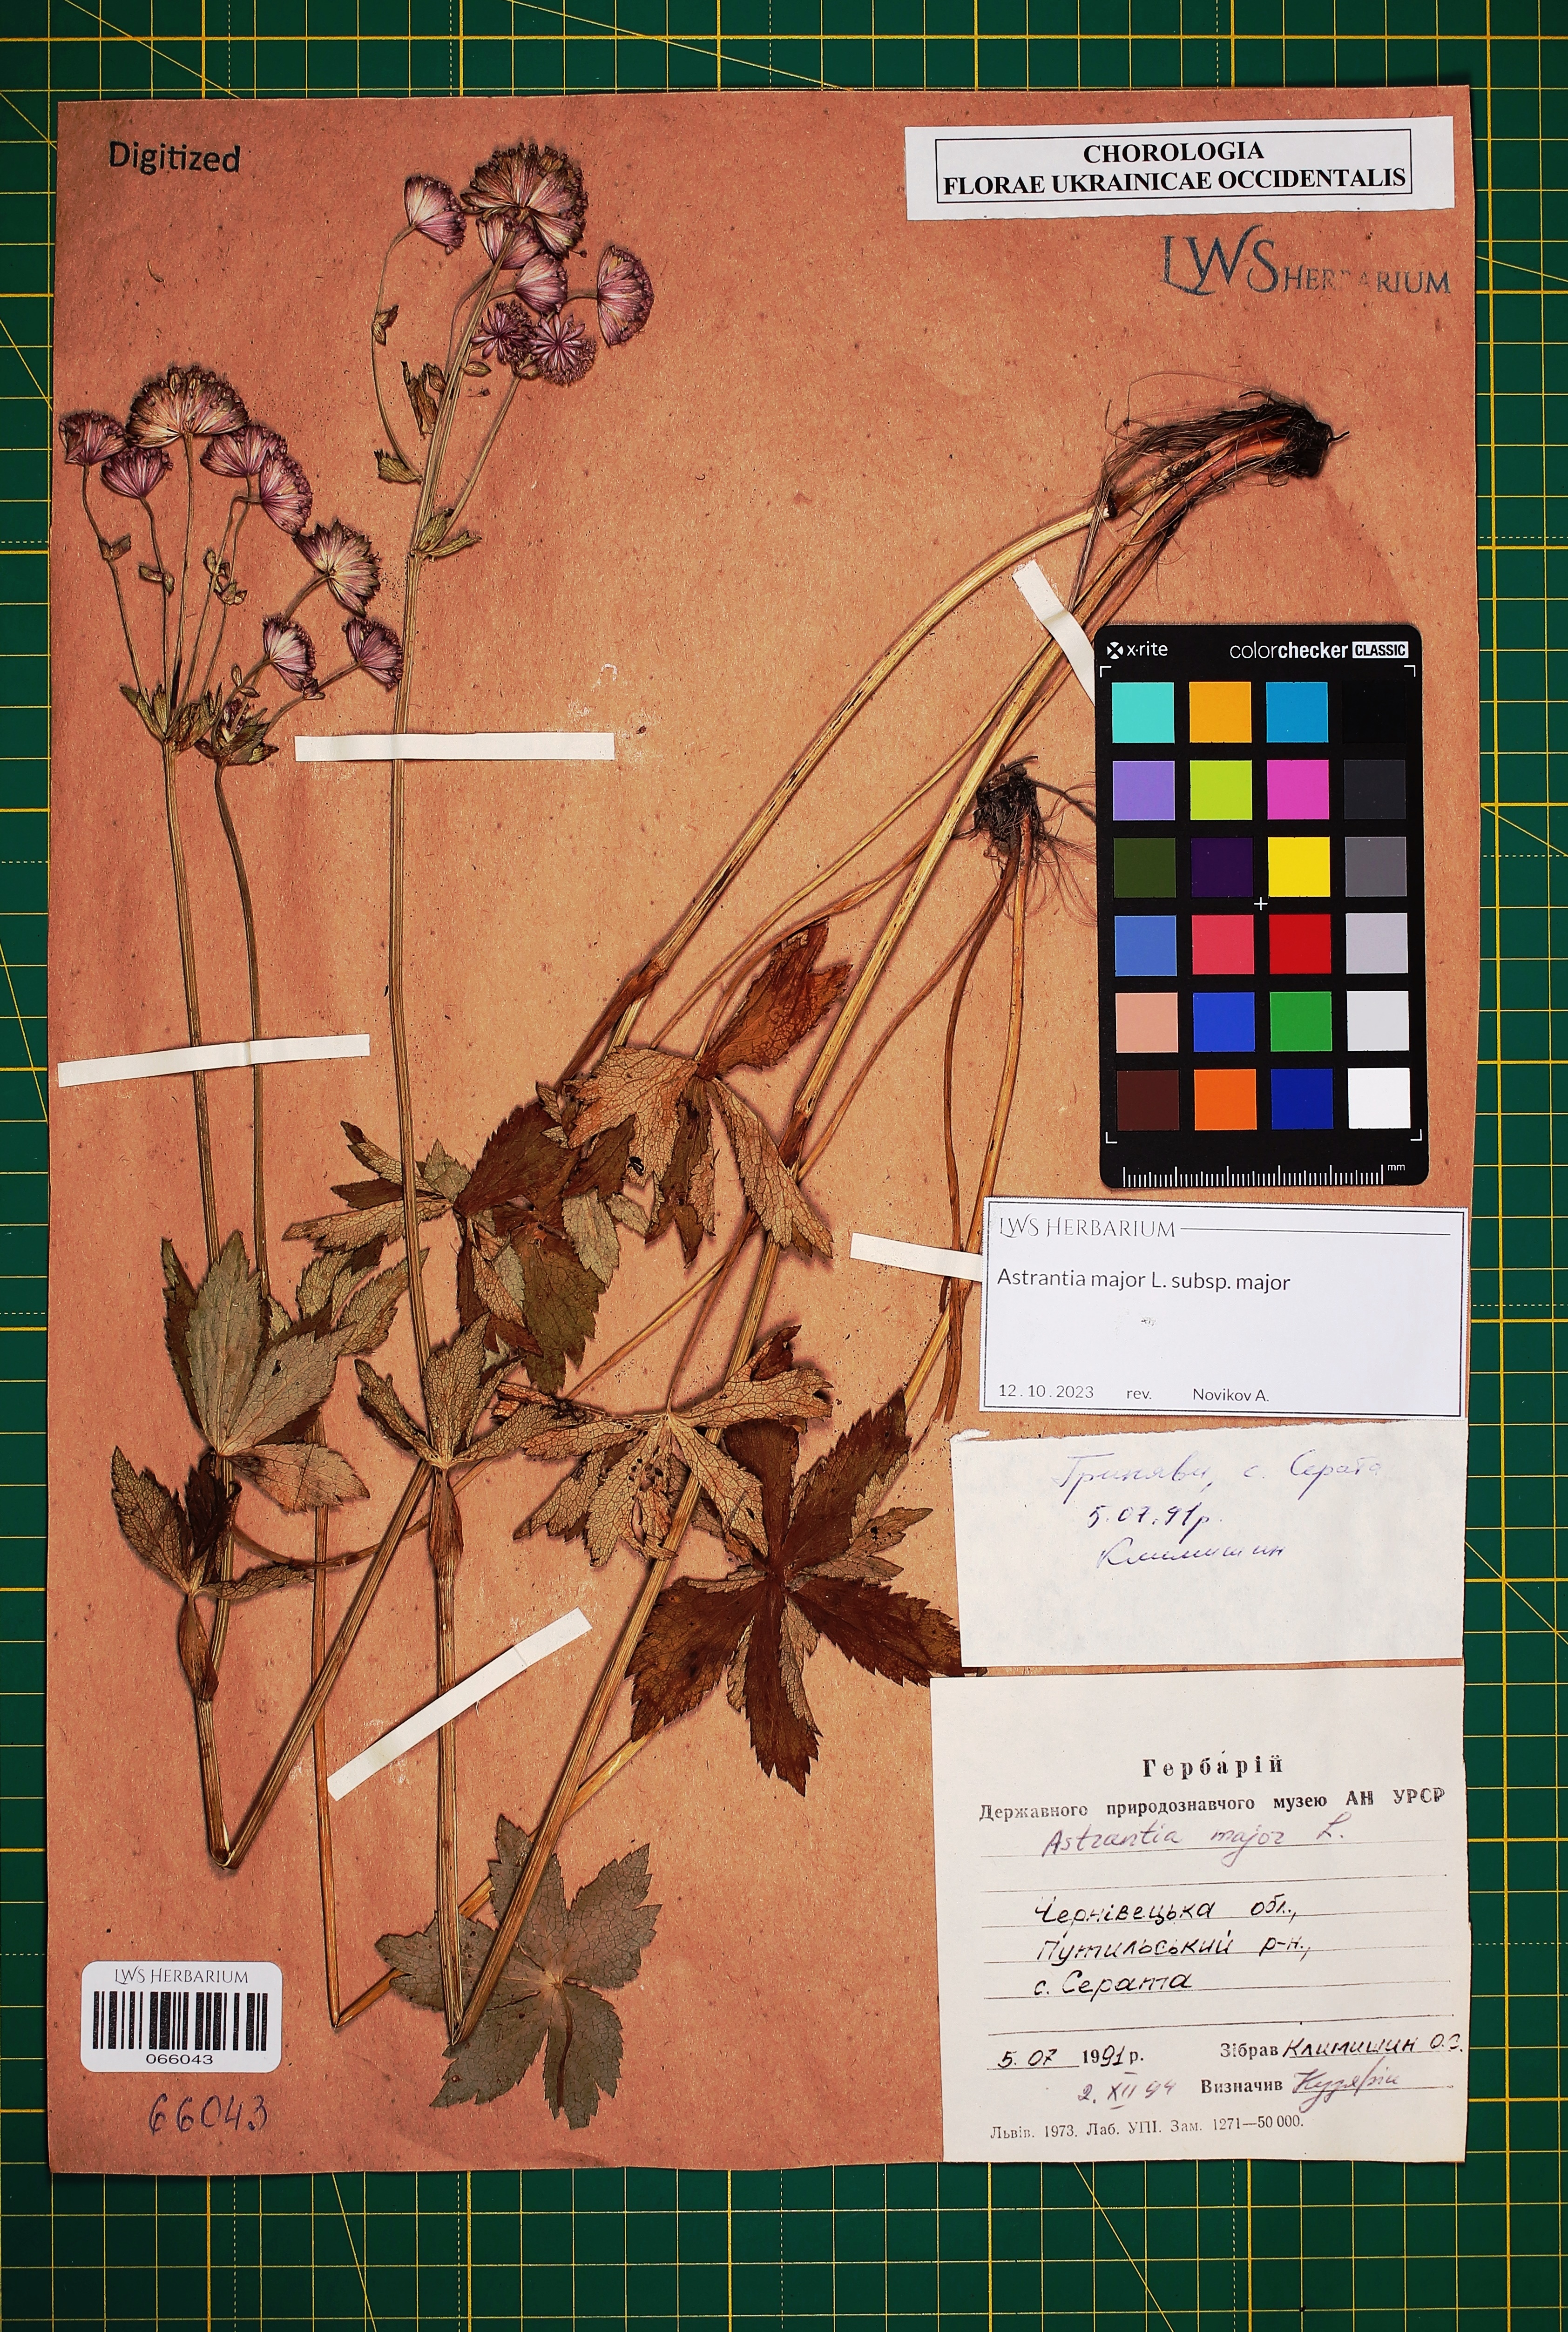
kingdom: Plantae
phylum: Tracheophyta
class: Magnoliopsida
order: Apiales
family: Apiaceae
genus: Astrantia
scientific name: Astrantia major
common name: Greater masterwort
